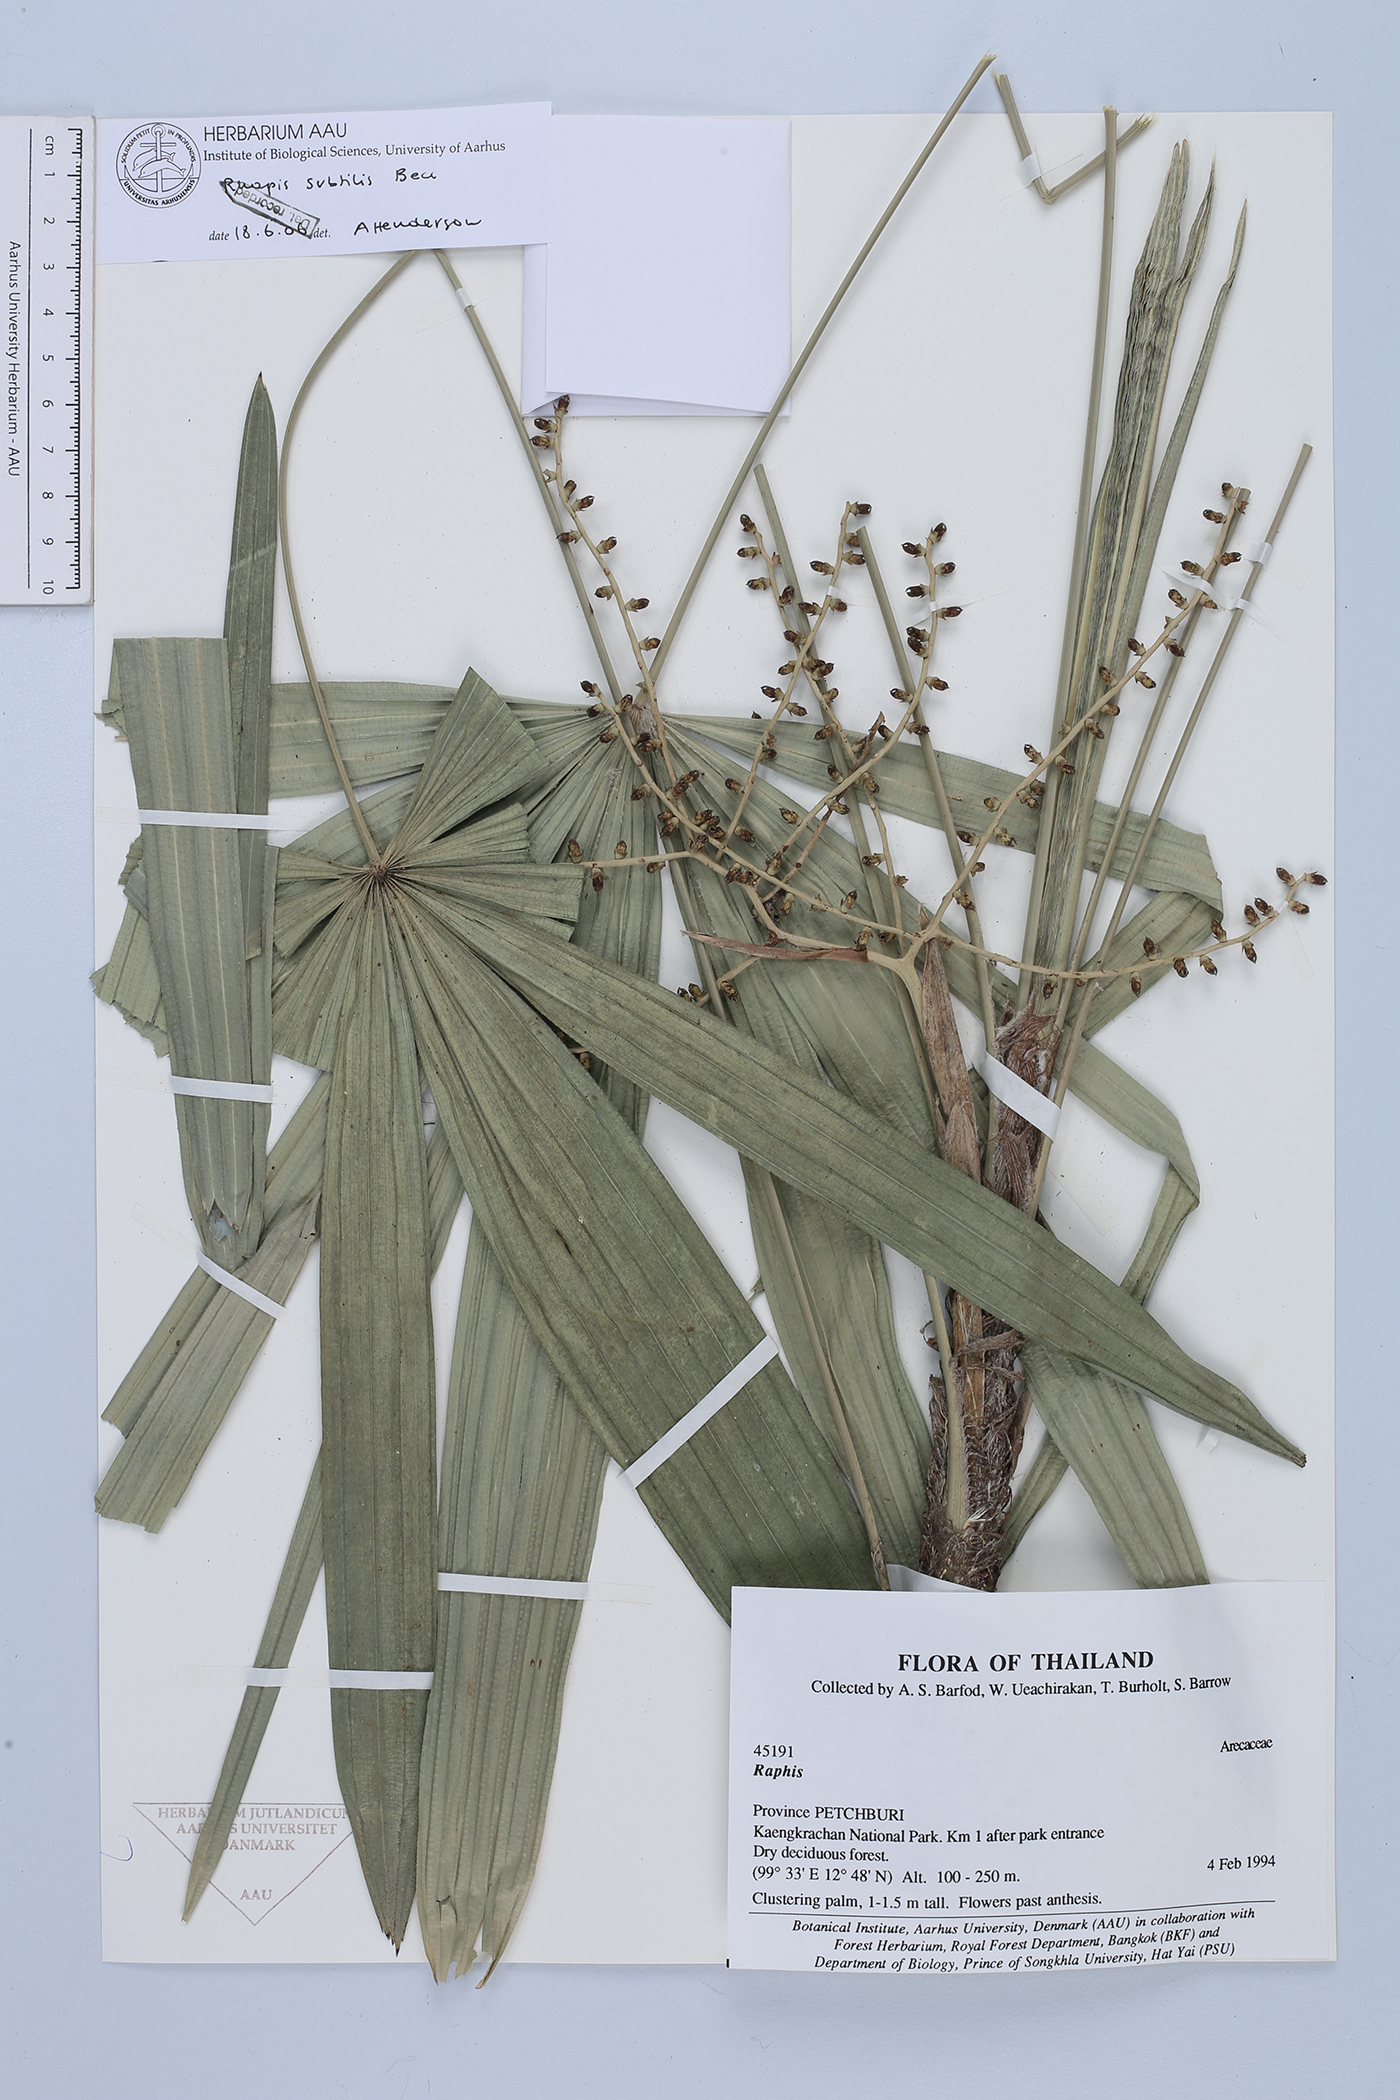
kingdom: Plantae
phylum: Tracheophyta
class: Liliopsida
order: Arecales
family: Arecaceae
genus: Rhapis
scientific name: Rhapis subtilis
